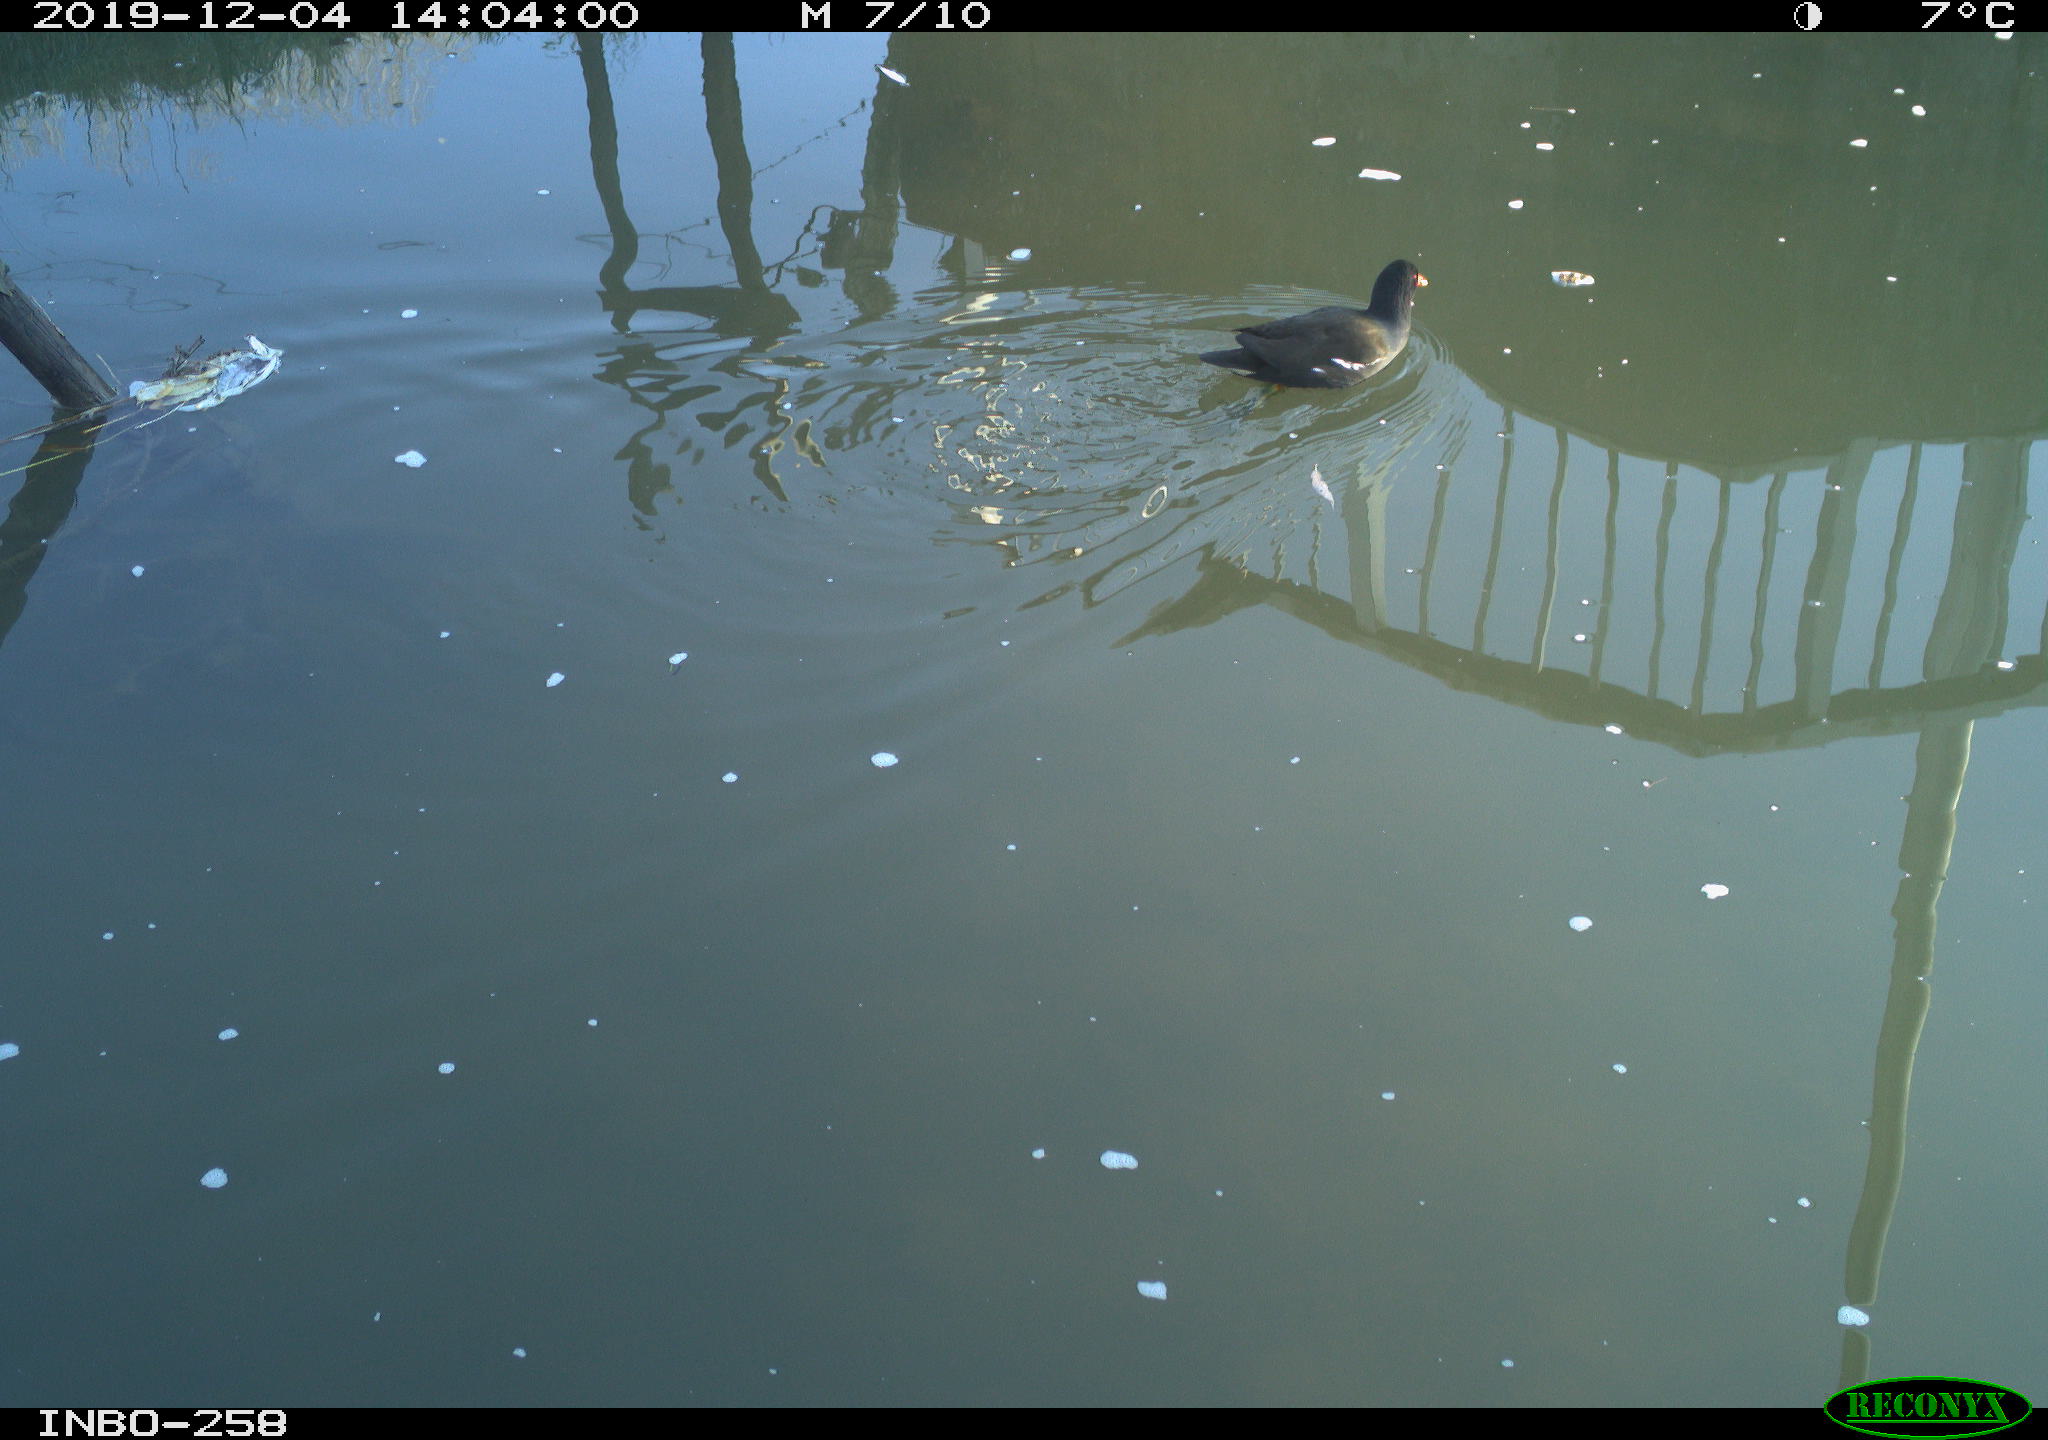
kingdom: Animalia
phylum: Chordata
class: Aves
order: Gruiformes
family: Rallidae
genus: Gallinula
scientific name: Gallinula chloropus
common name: Common moorhen
